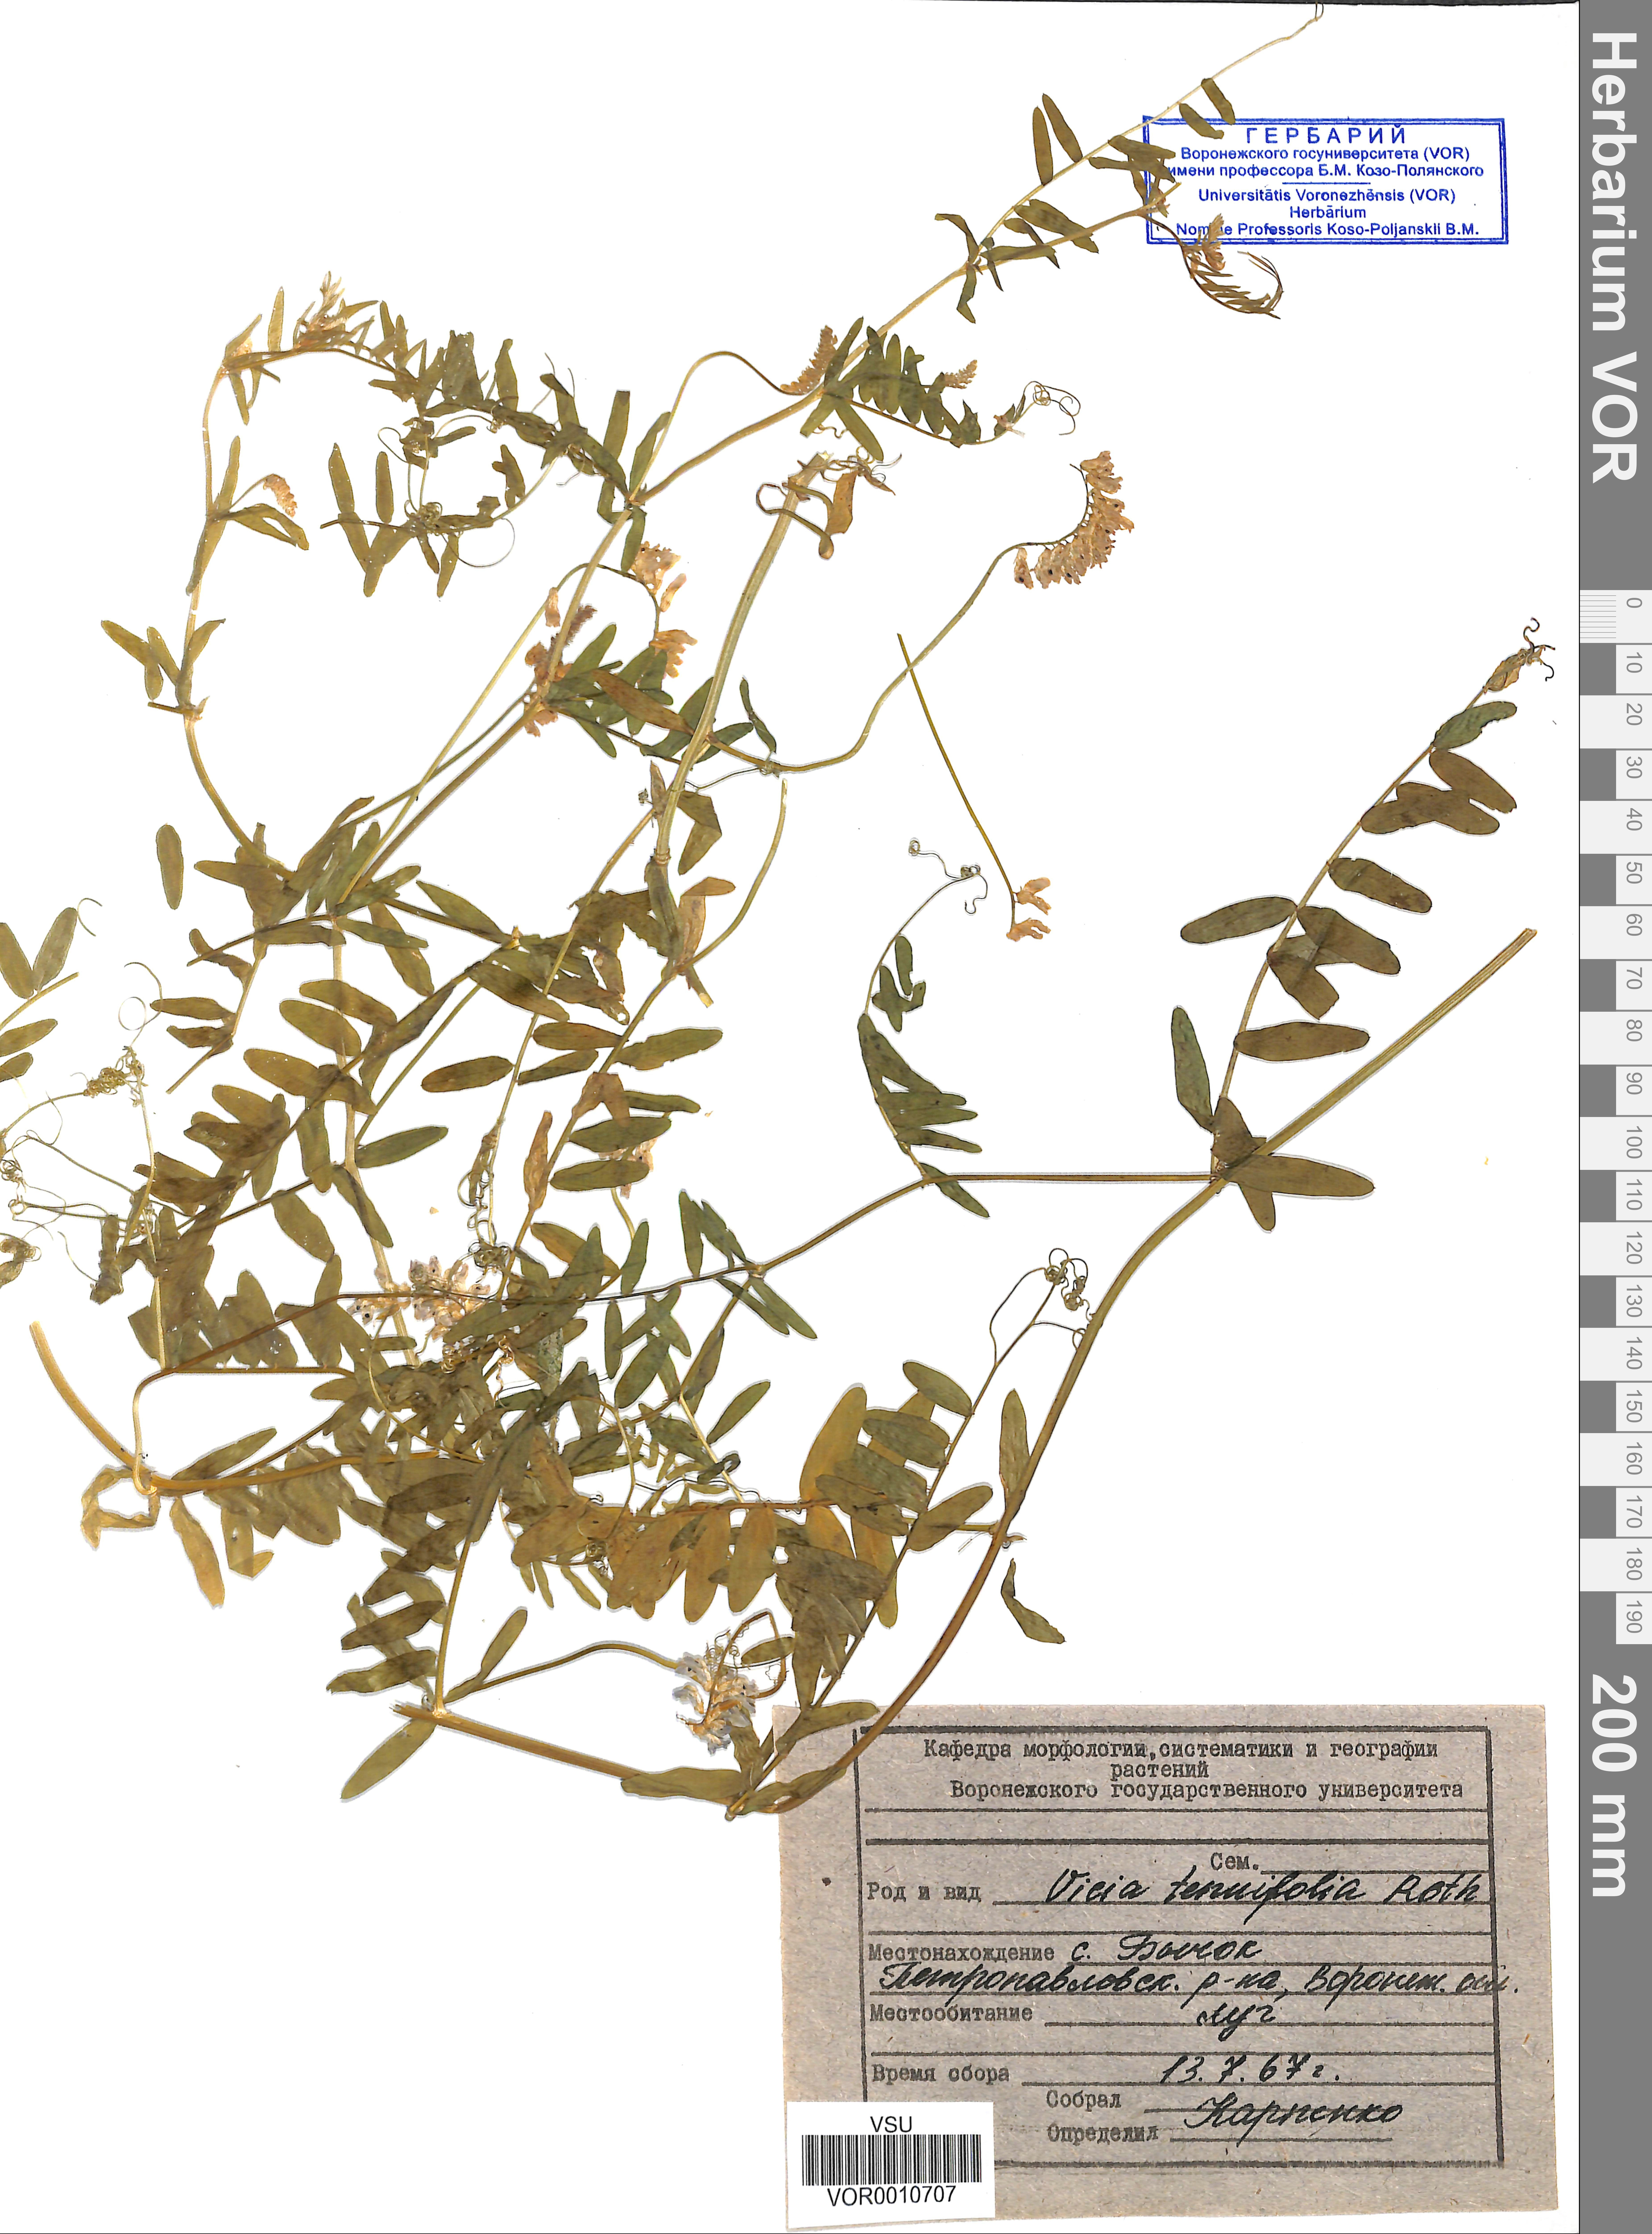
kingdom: Plantae
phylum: Tracheophyta
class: Magnoliopsida
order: Fabales
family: Fabaceae
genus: Vicia
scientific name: Vicia tenuifolia
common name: Fine-leaved vetch
